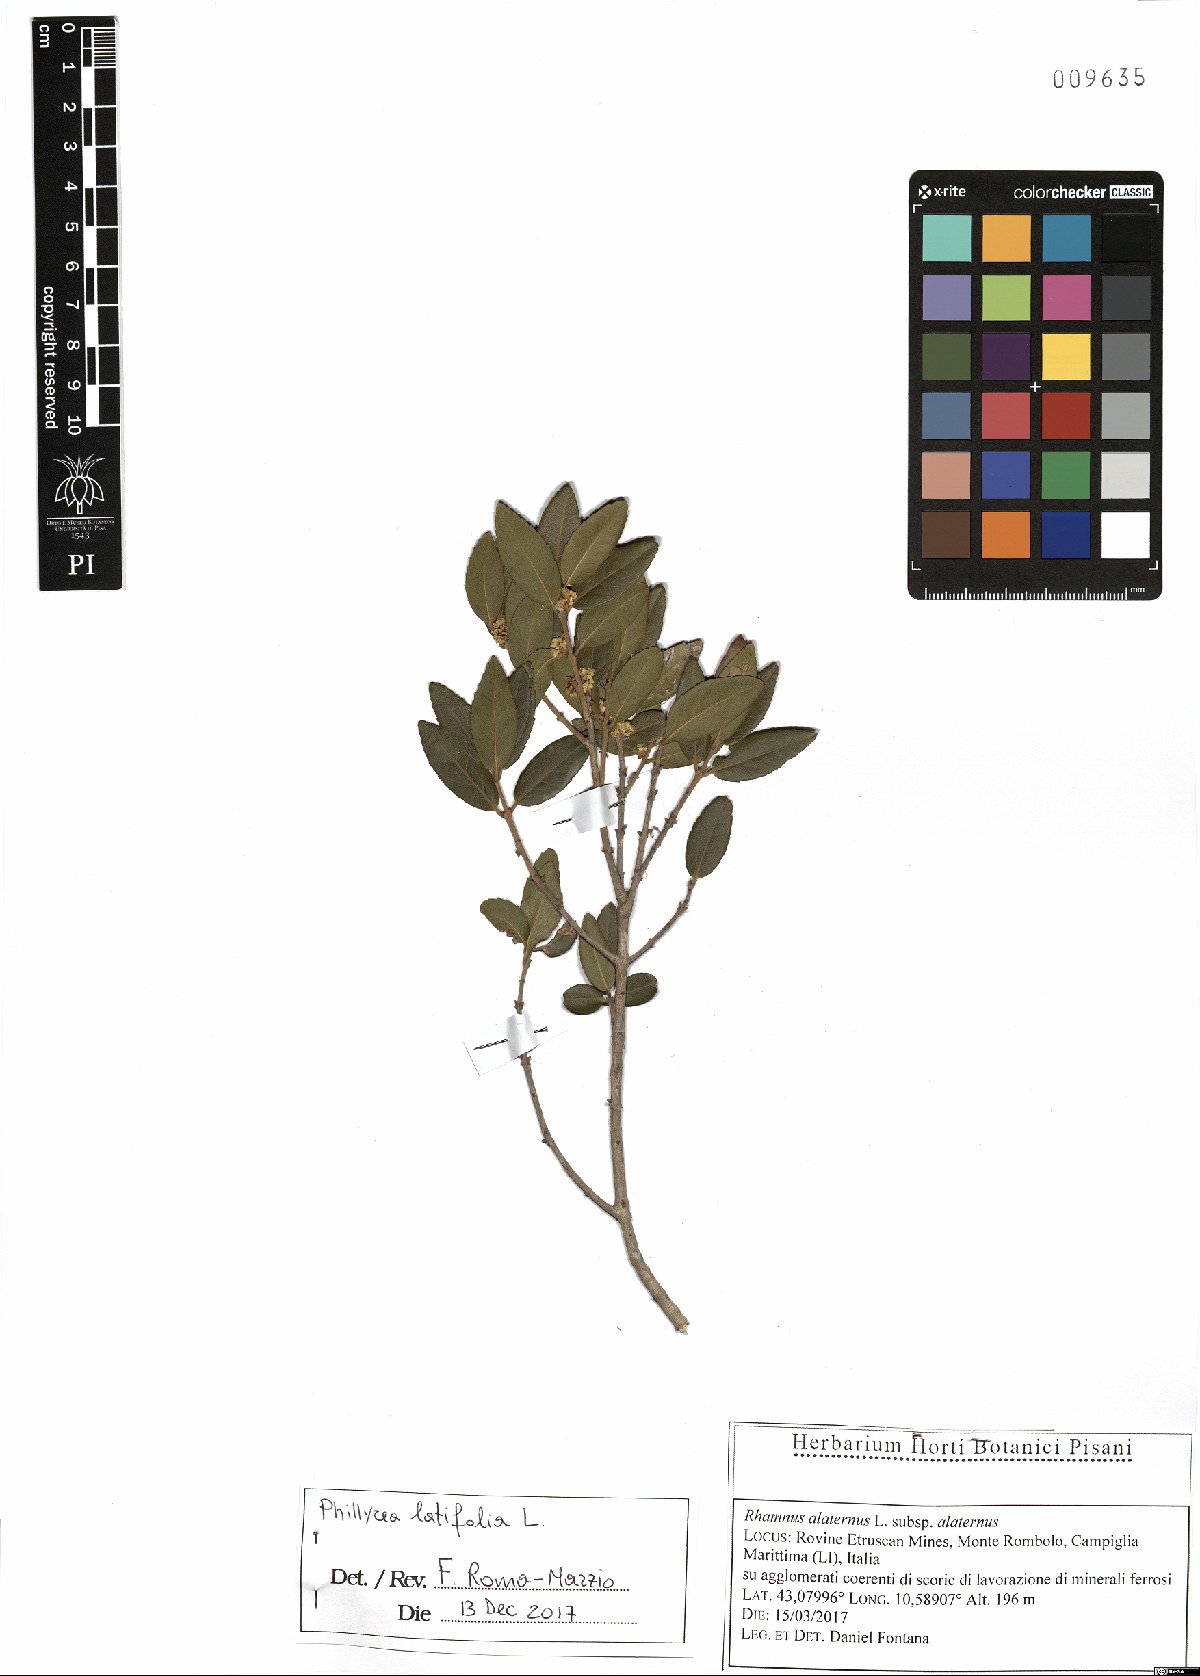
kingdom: Plantae
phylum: Tracheophyta
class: Magnoliopsida
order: Lamiales
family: Oleaceae
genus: Phillyrea
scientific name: Phillyrea latifolia
